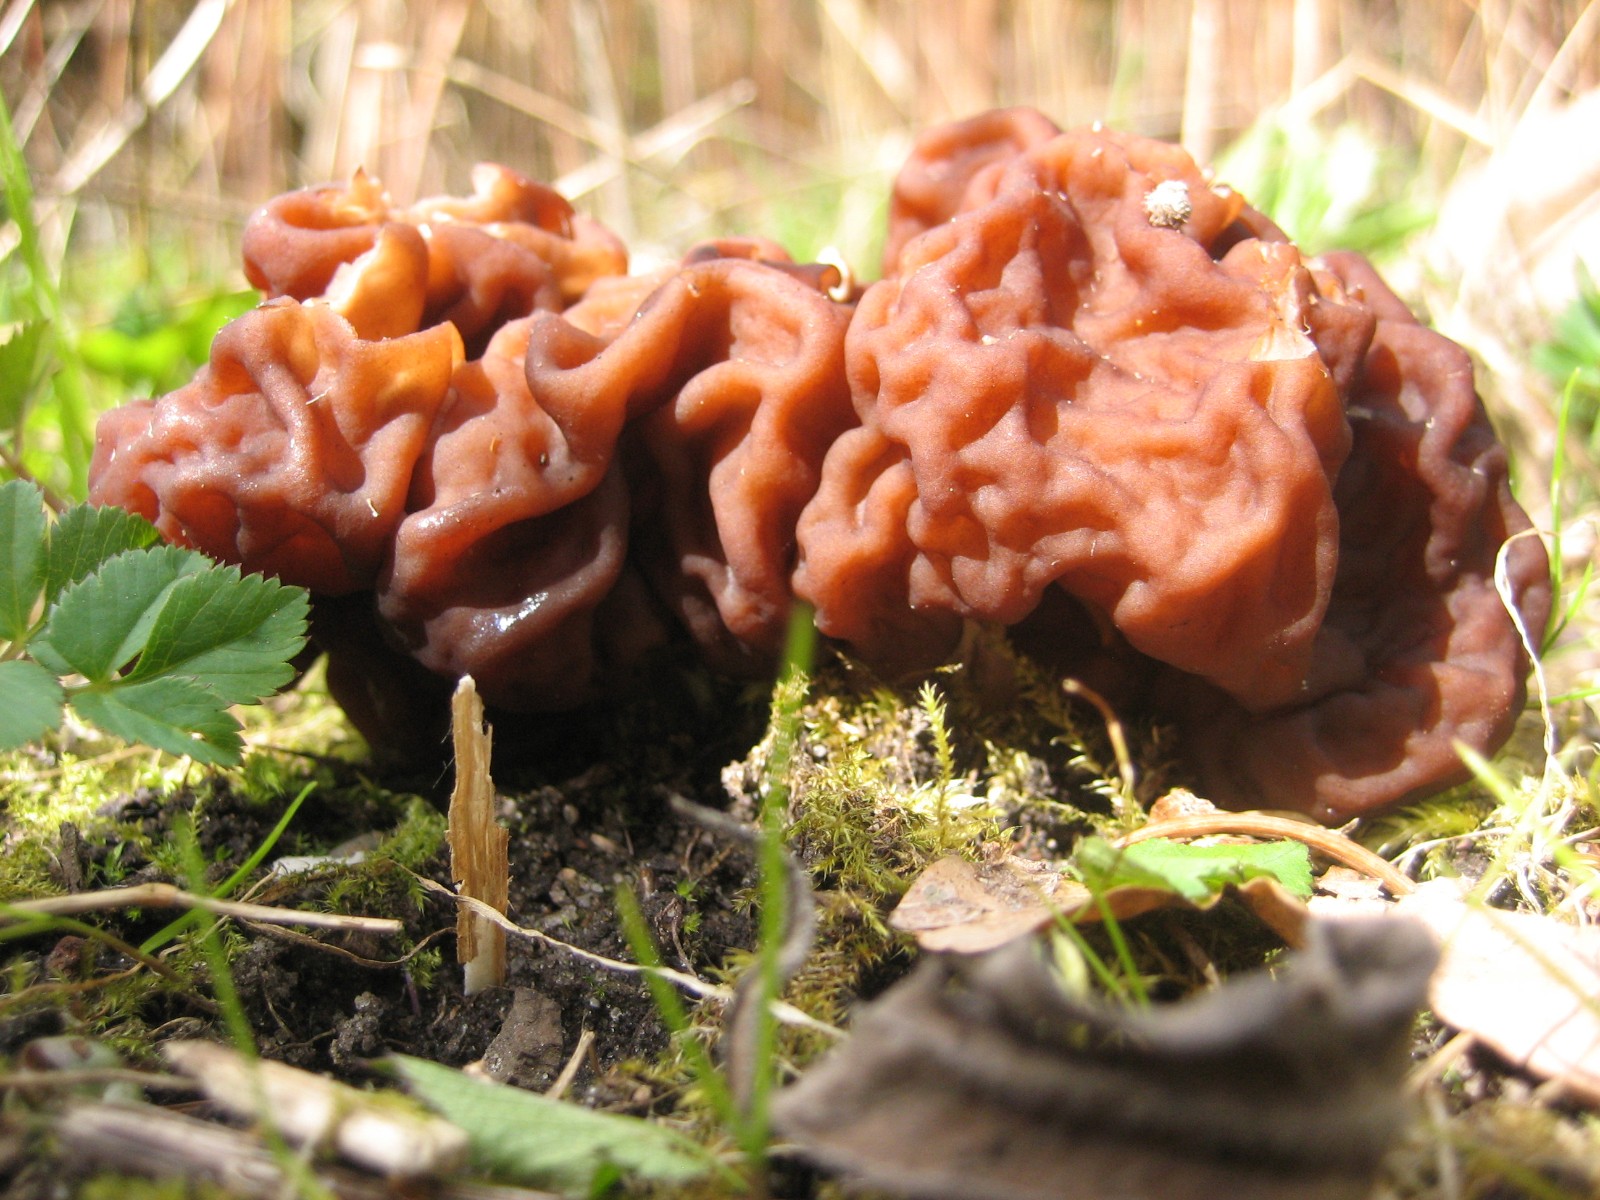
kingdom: Fungi
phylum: Ascomycota
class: Pezizomycetes
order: Pezizales
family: Discinaceae
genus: Gyromitra
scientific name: Gyromitra esculenta
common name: ægte stenmorkel
